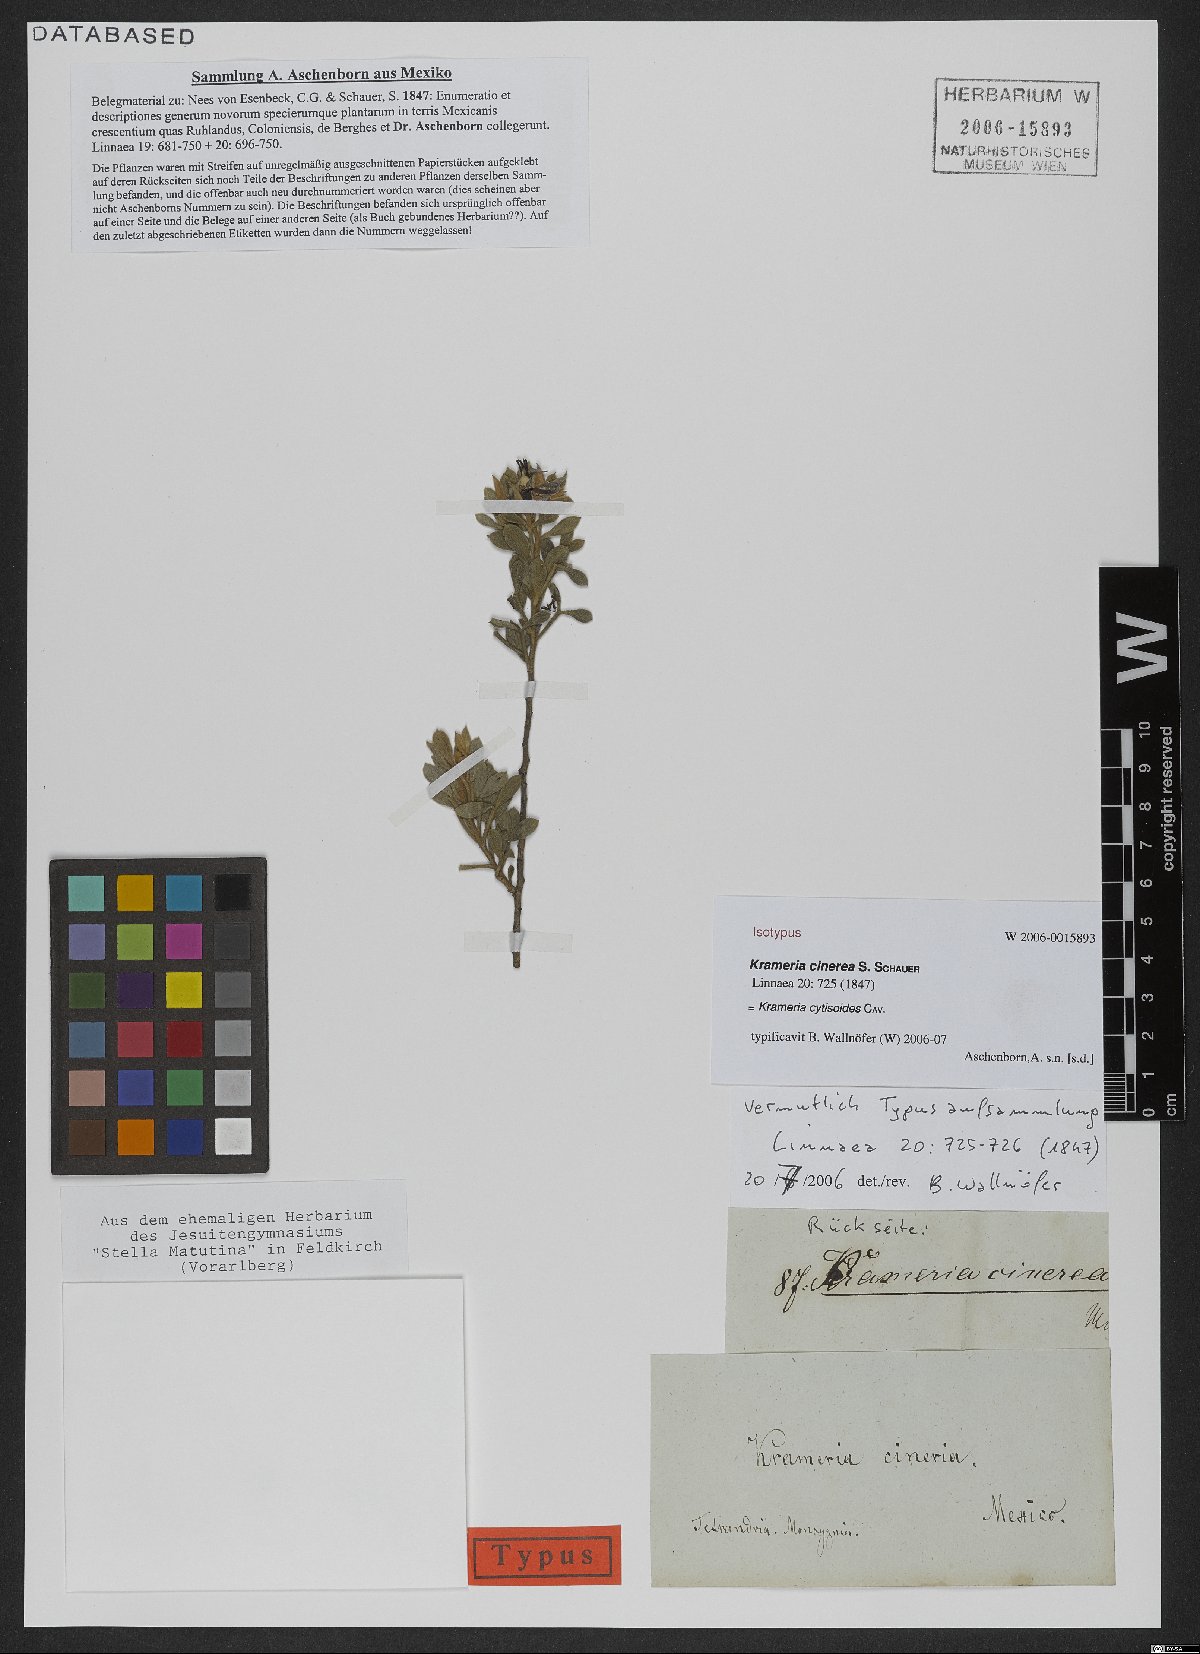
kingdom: Plantae
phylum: Tracheophyta
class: Magnoliopsida
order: Zygophyllales
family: Krameriaceae
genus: Krameria
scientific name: Krameria cytisoides
